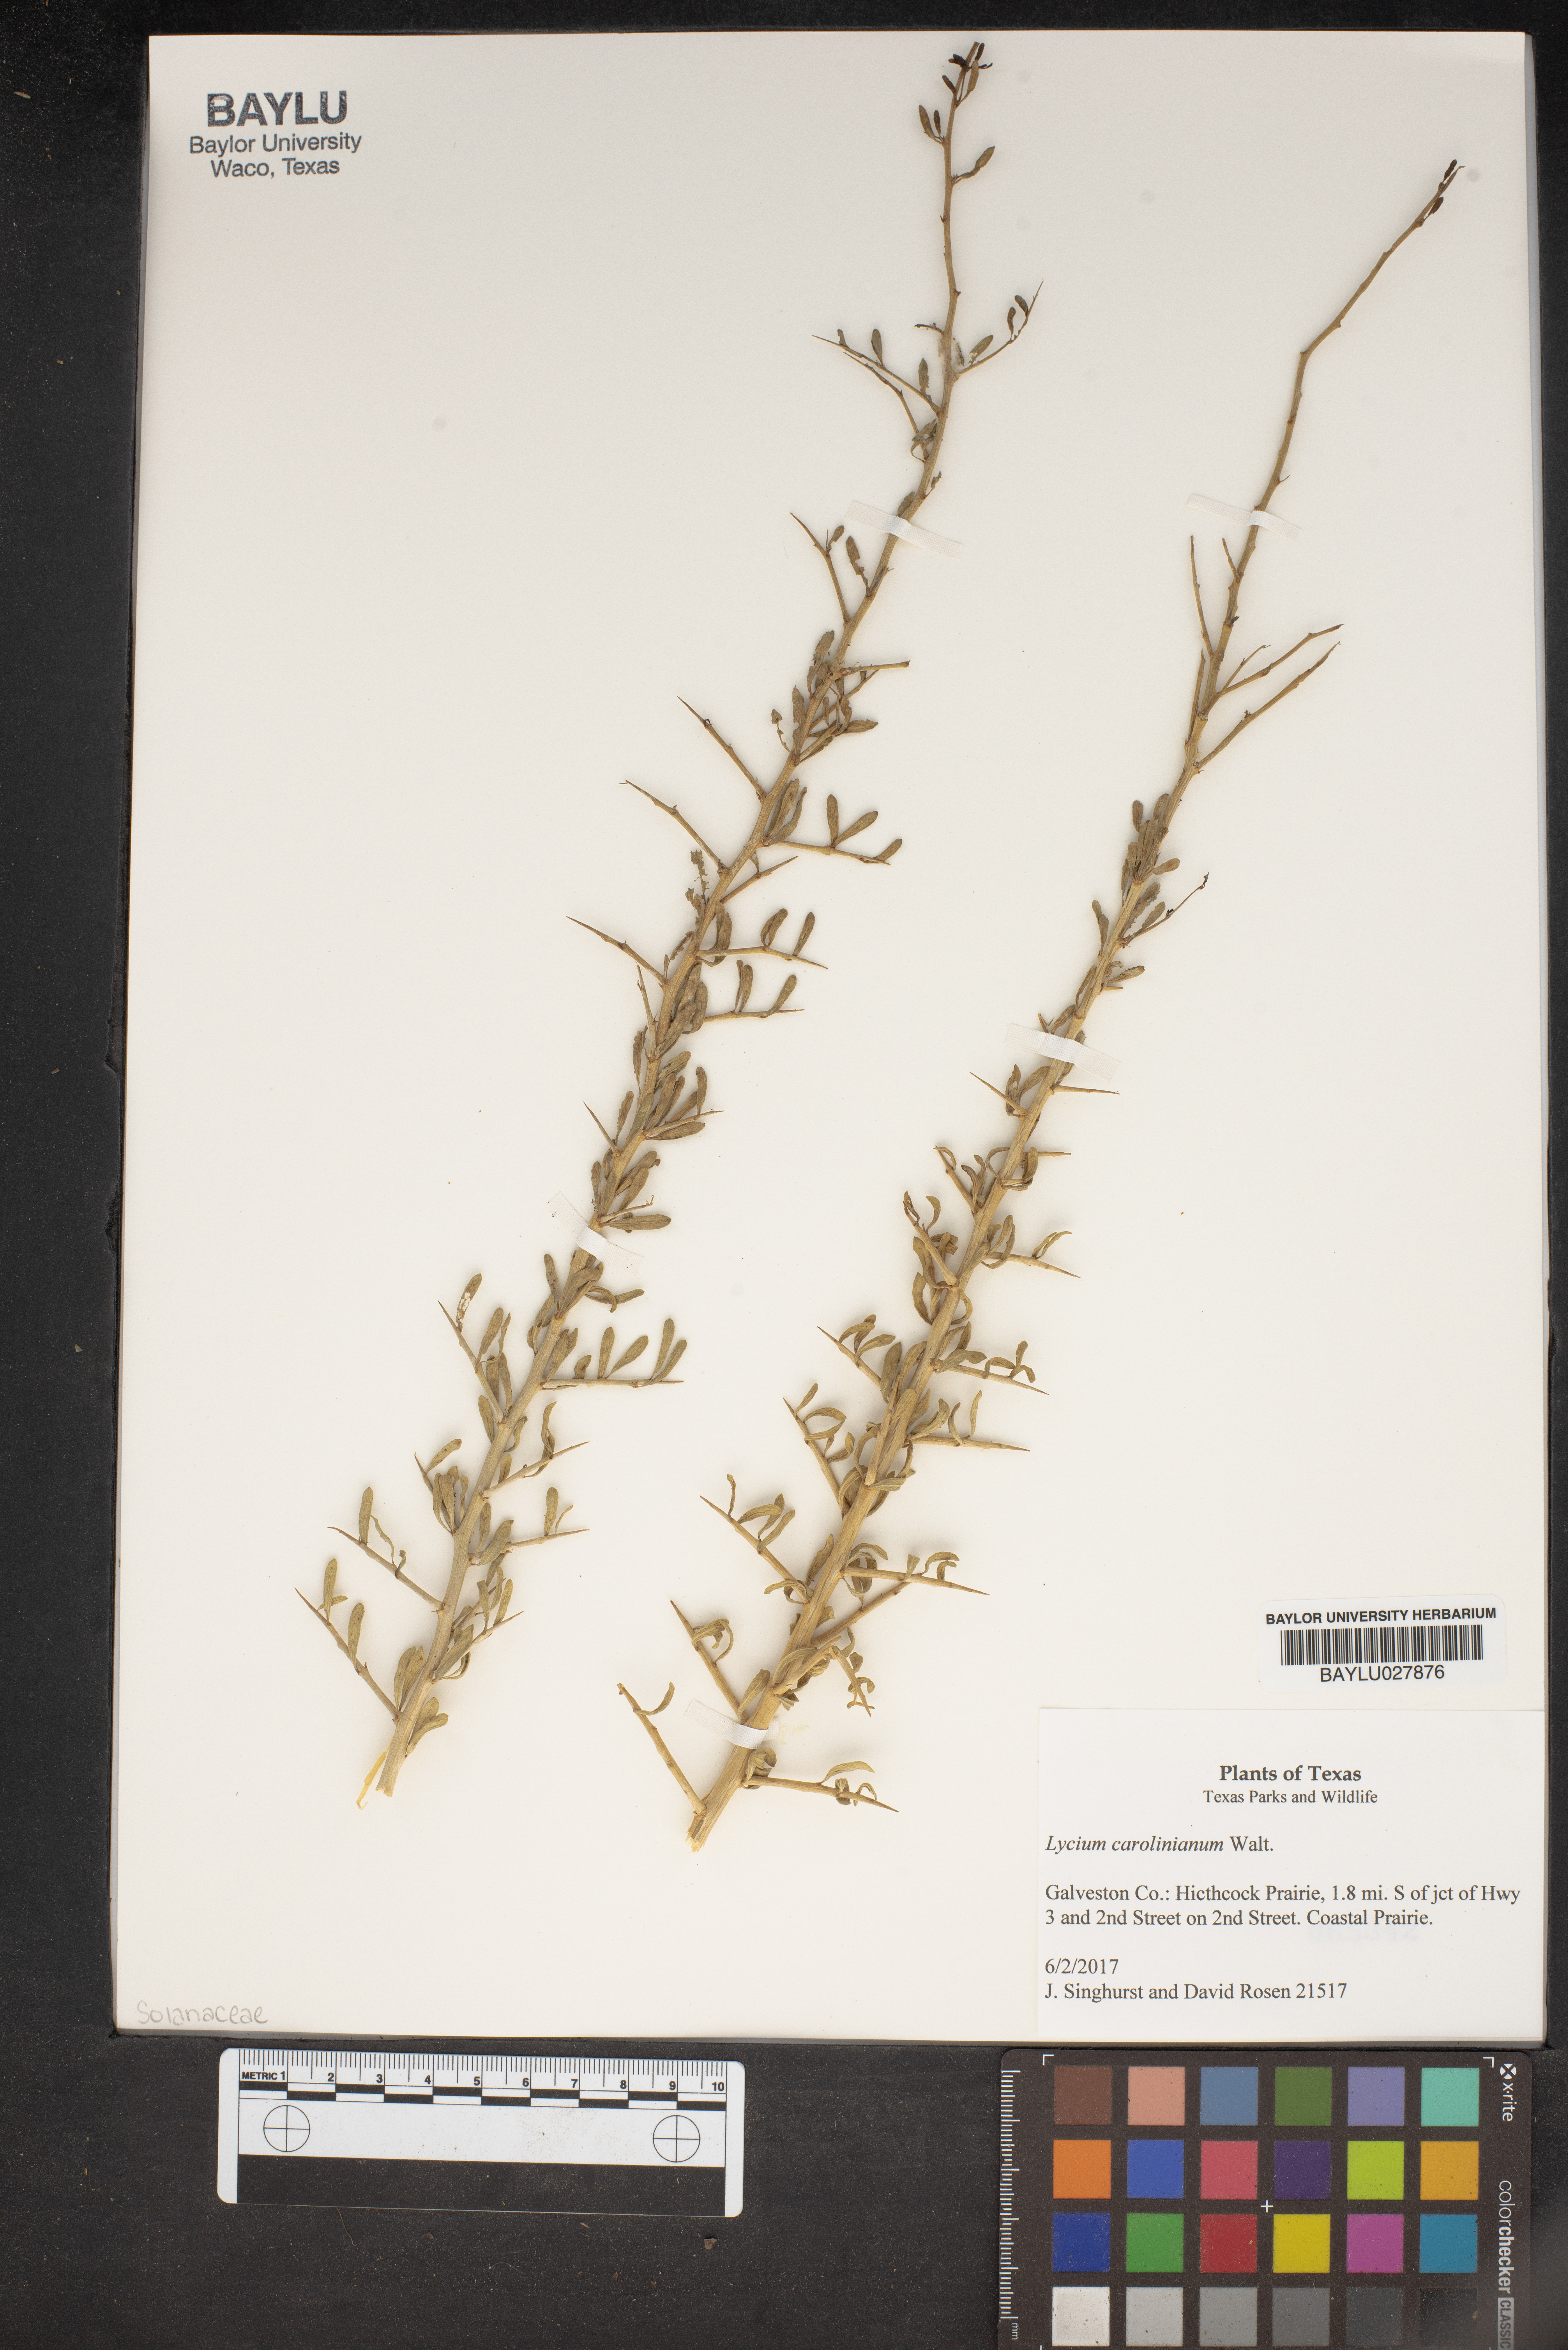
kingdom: Plantae
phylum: Tracheophyta
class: Magnoliopsida
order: Solanales
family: Solanaceae
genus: Lycium
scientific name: Lycium carolinianum
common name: Christmasberry
